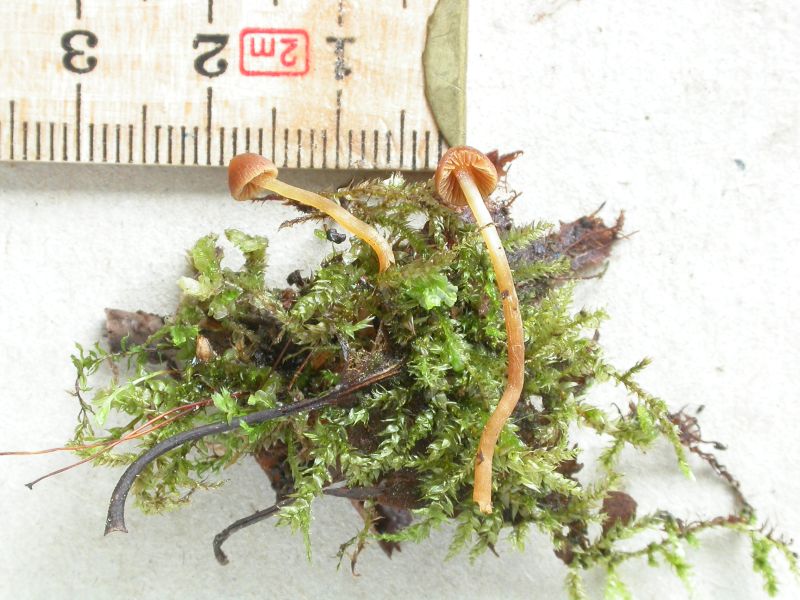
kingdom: Fungi
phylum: Basidiomycota
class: Agaricomycetes
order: Agaricales
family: Hymenogastraceae
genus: Galerina
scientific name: Galerina hypnorum
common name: mos-hjelmhat
